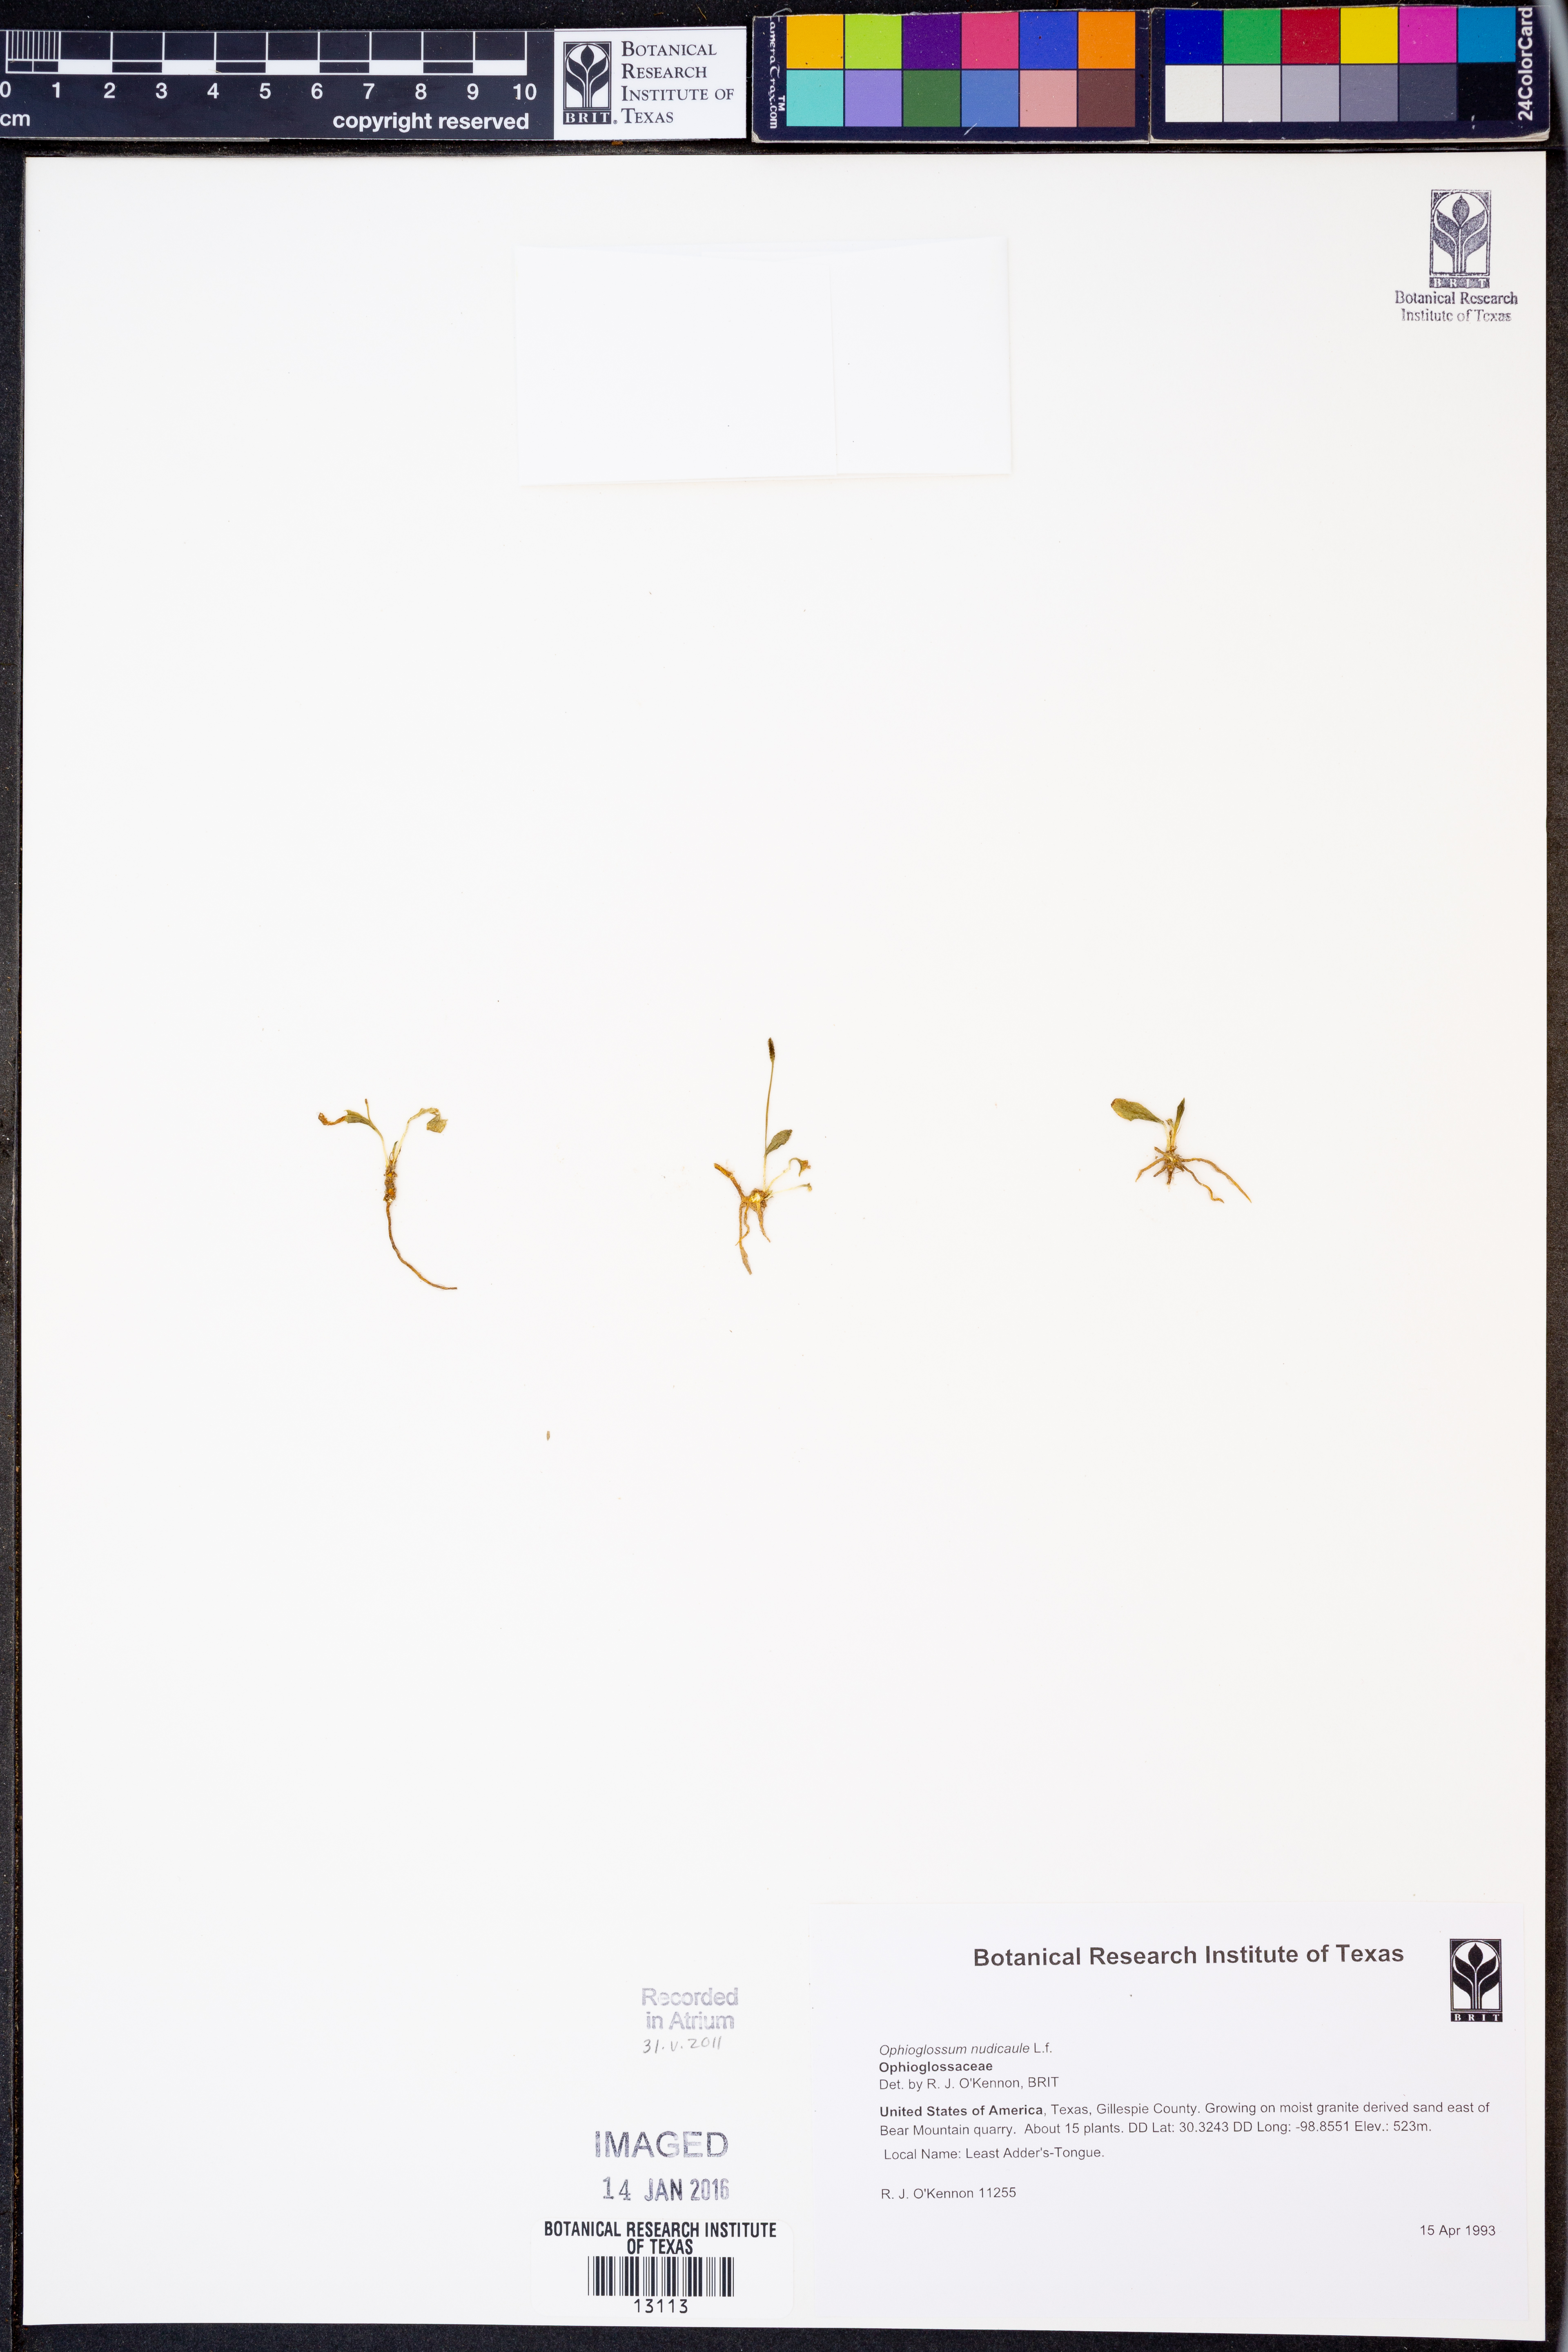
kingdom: Plantae
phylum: Tracheophyta
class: Polypodiopsida
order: Ophioglossales
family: Ophioglossaceae
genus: Ophioglossum
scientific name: Ophioglossum nudicaule
